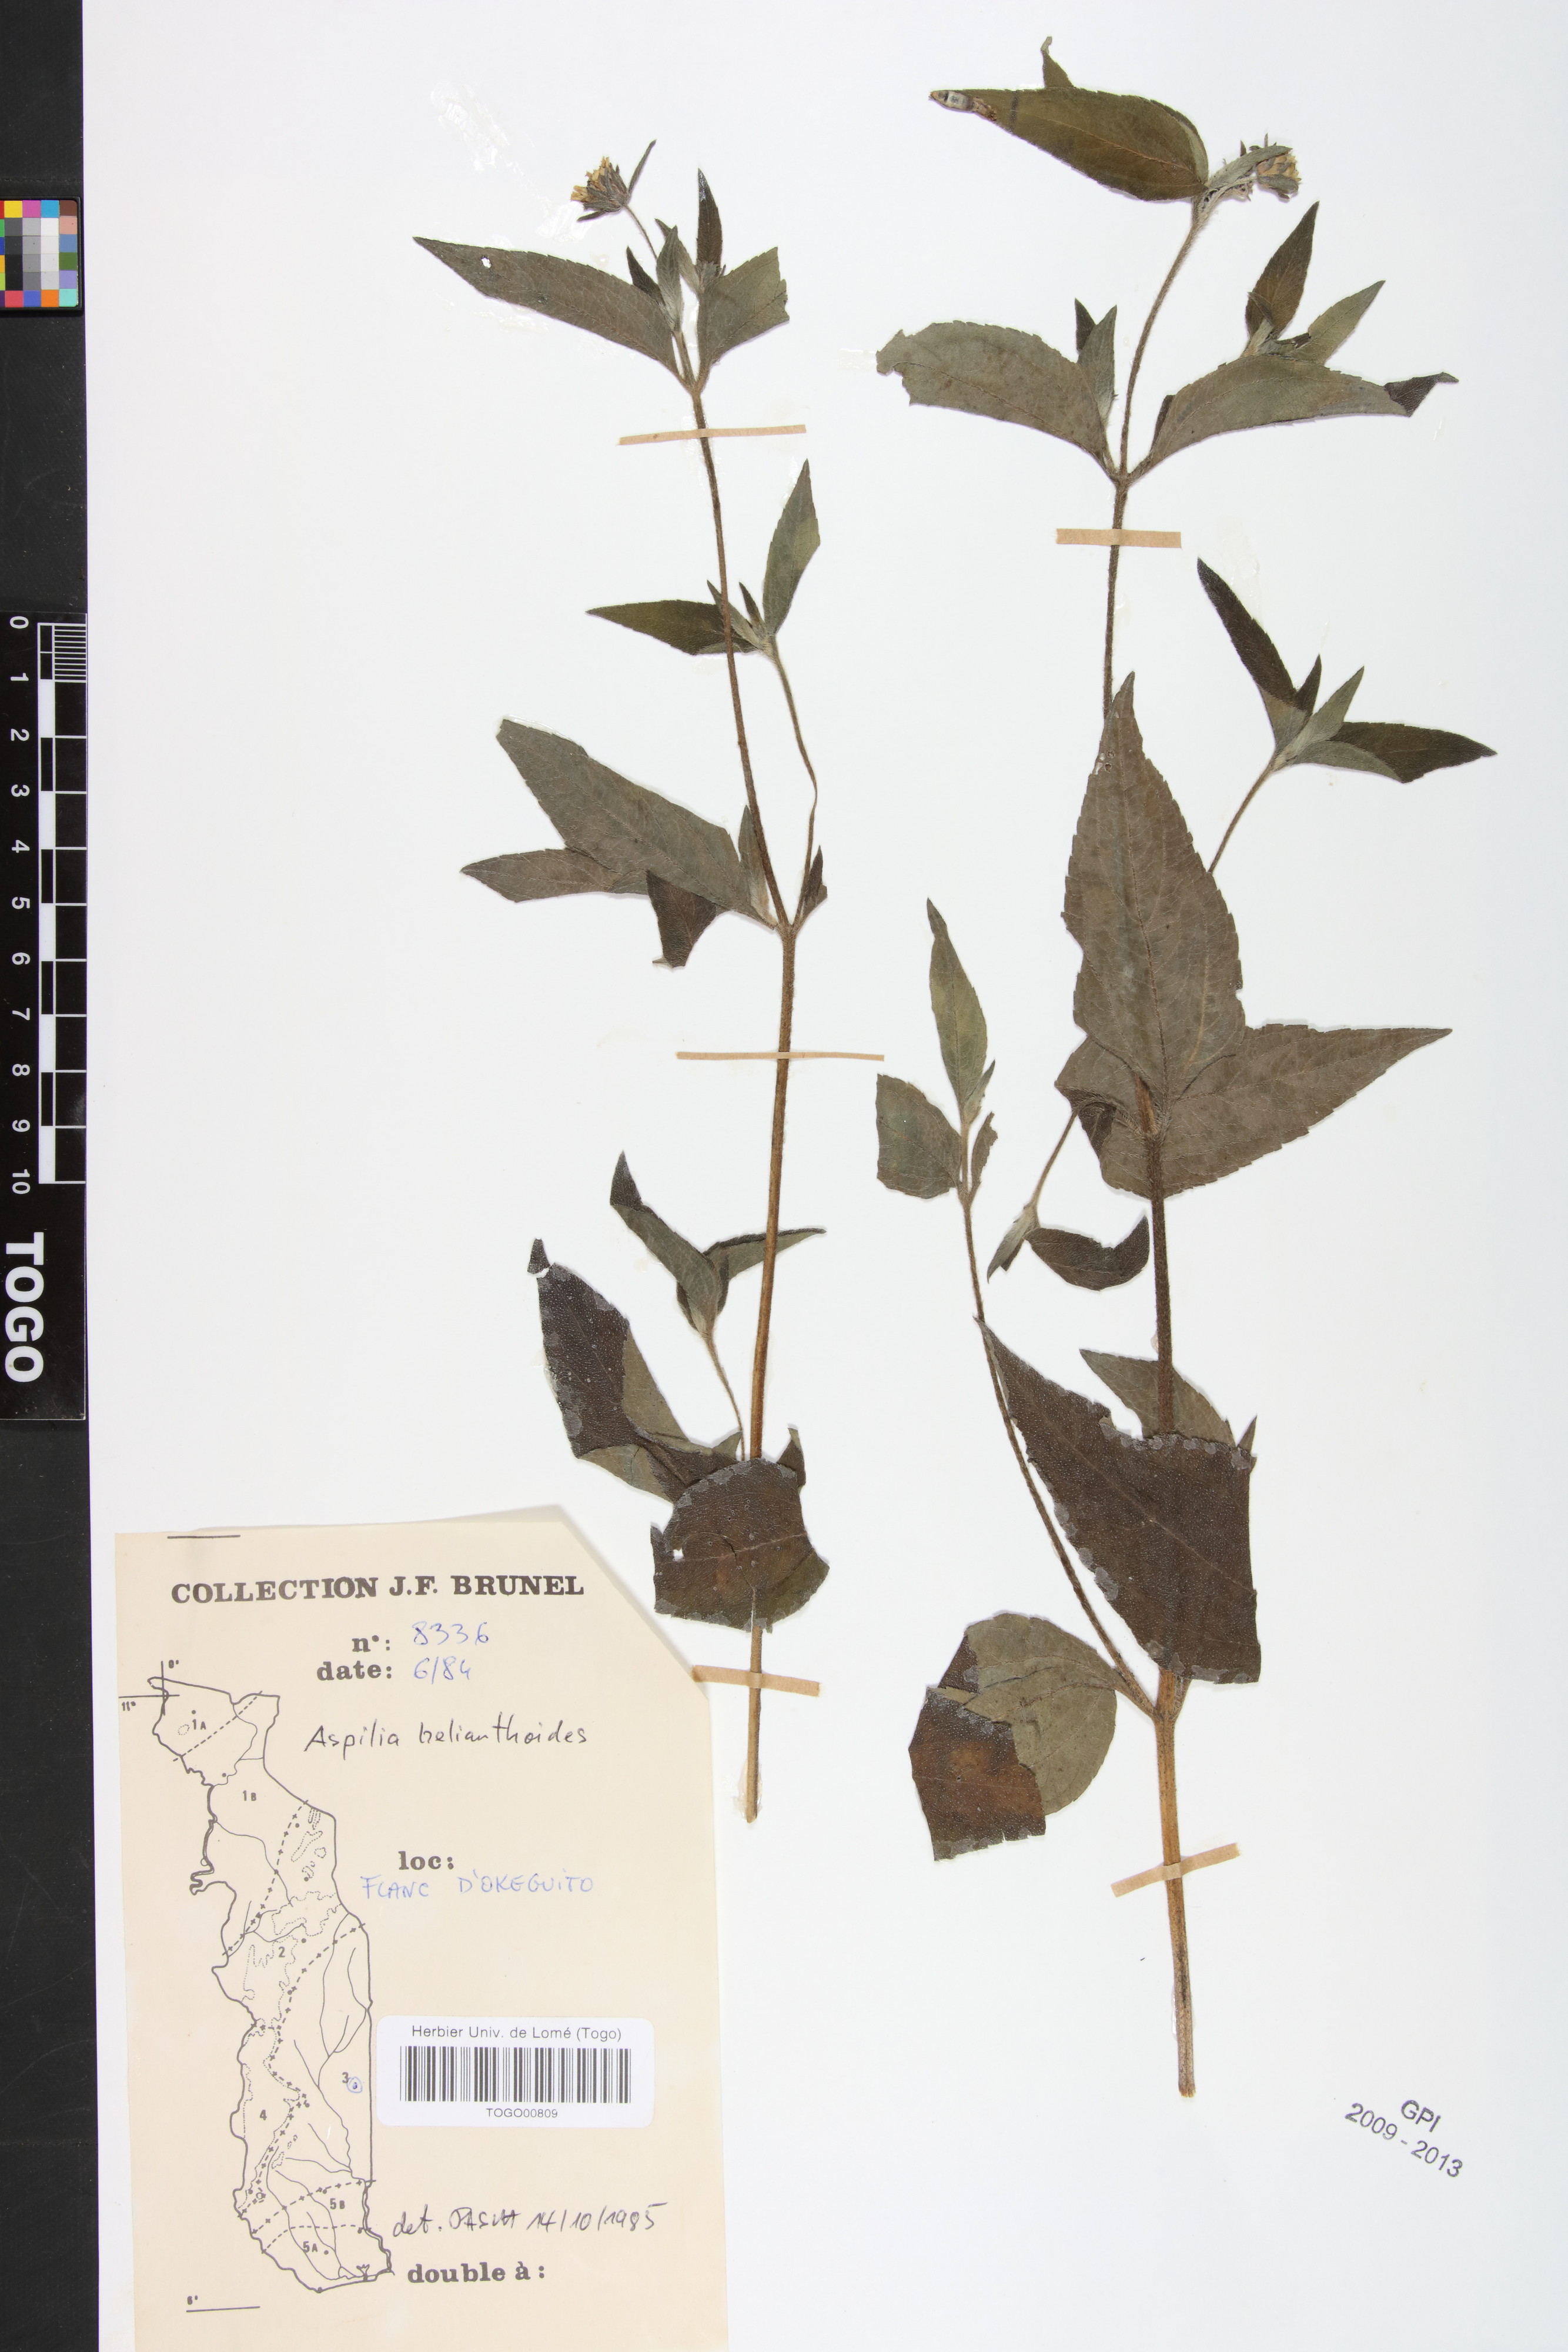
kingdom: Plantae
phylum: Tracheophyta
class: Magnoliopsida
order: Asterales
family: Asteraceae
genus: Aspilia
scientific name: Aspilia helianthoides
